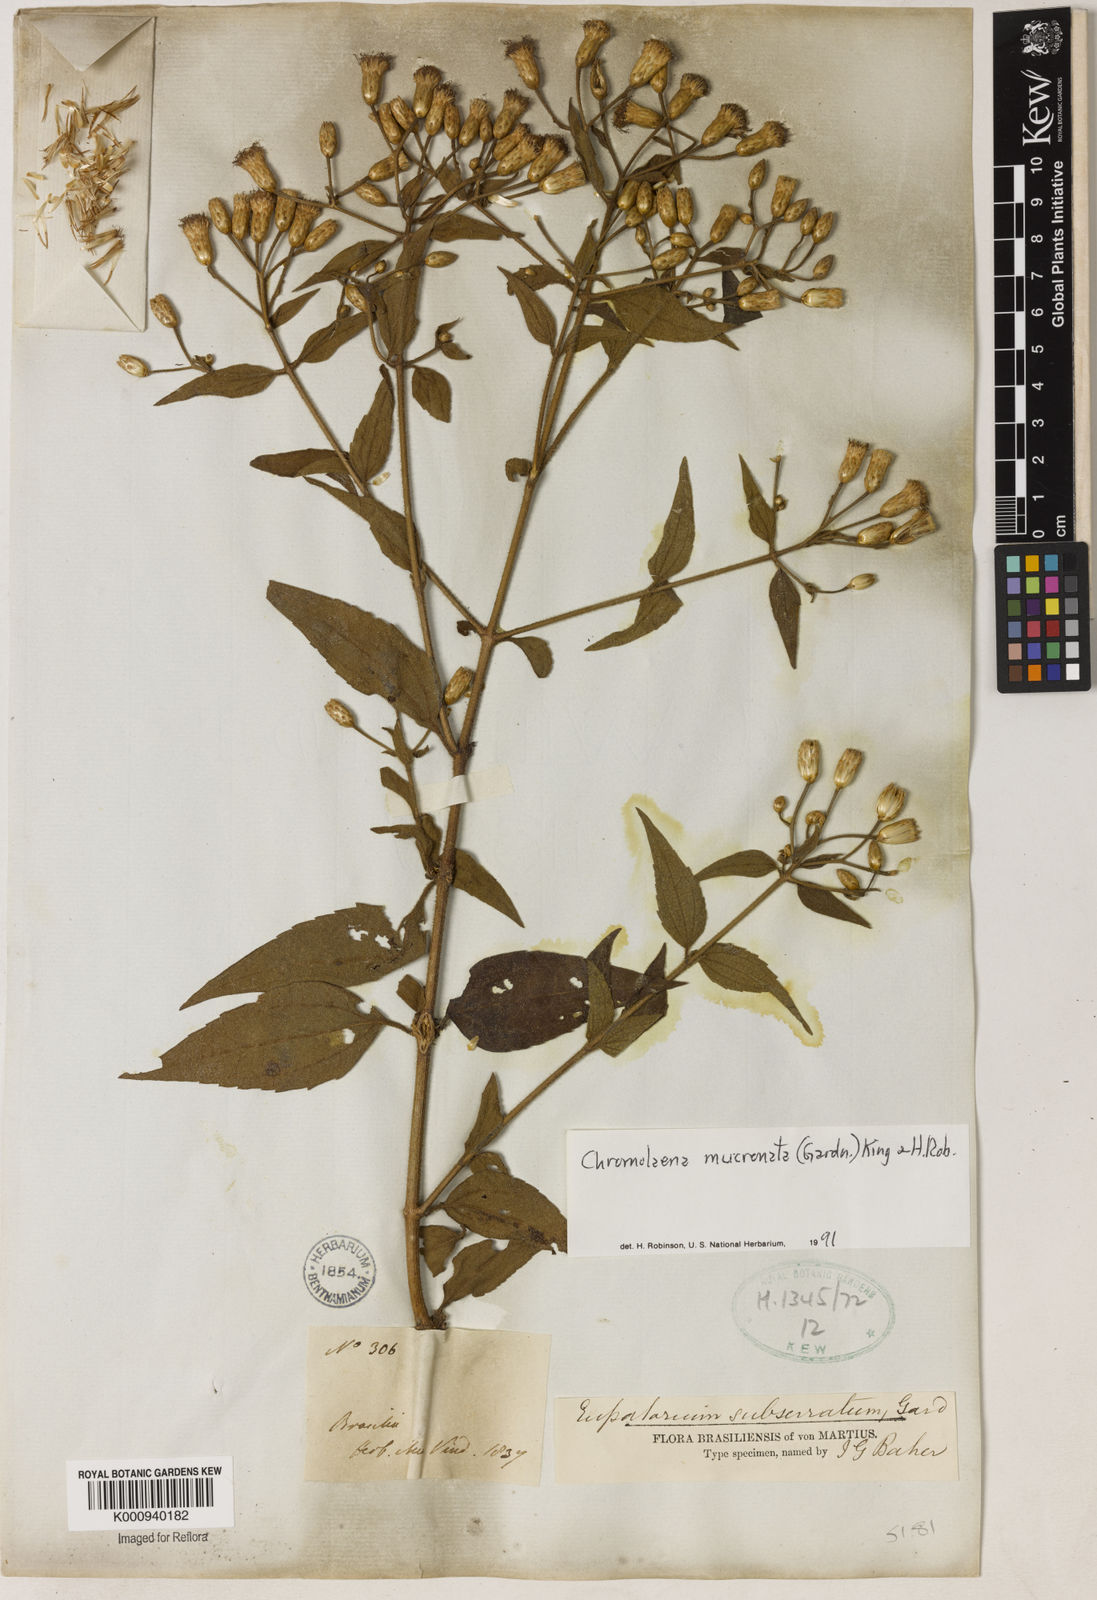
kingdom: Plantae
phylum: Tracheophyta
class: Magnoliopsida
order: Asterales
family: Asteraceae
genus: Chromolaena
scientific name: Chromolaena mucronata
